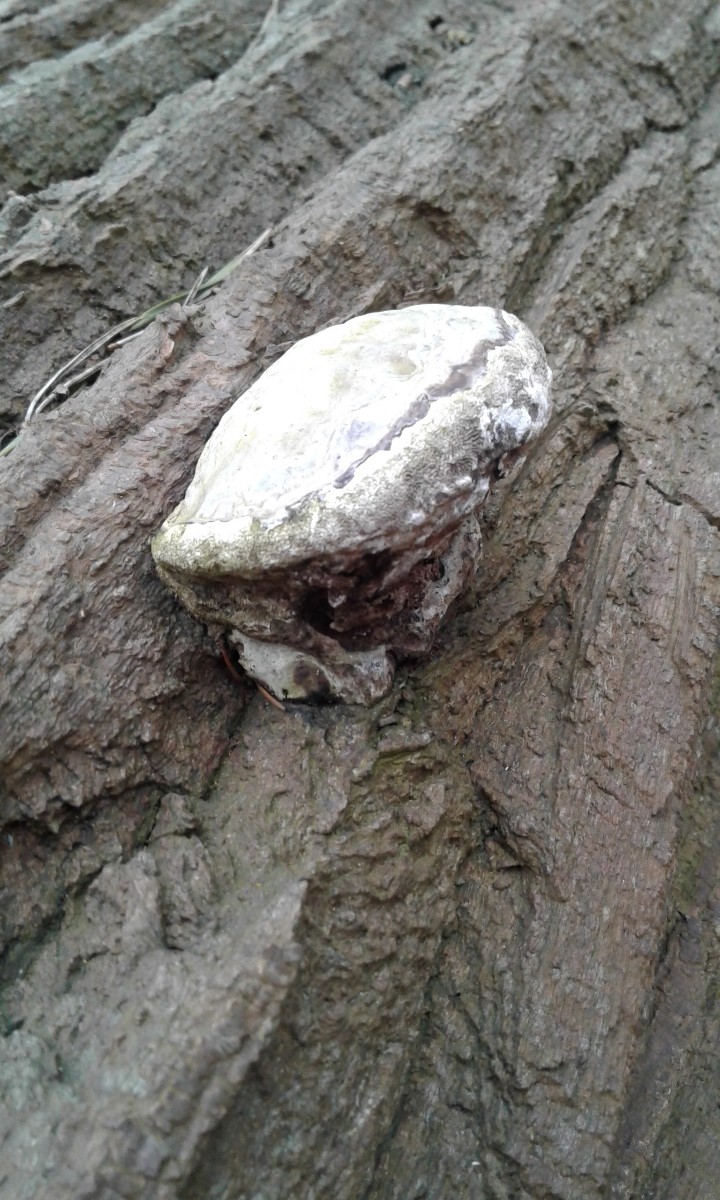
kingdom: Fungi
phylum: Basidiomycota
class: Agaricomycetes
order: Polyporales
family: Polyporaceae
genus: Fomes
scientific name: Fomes fomentarius
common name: tøndersvamp
